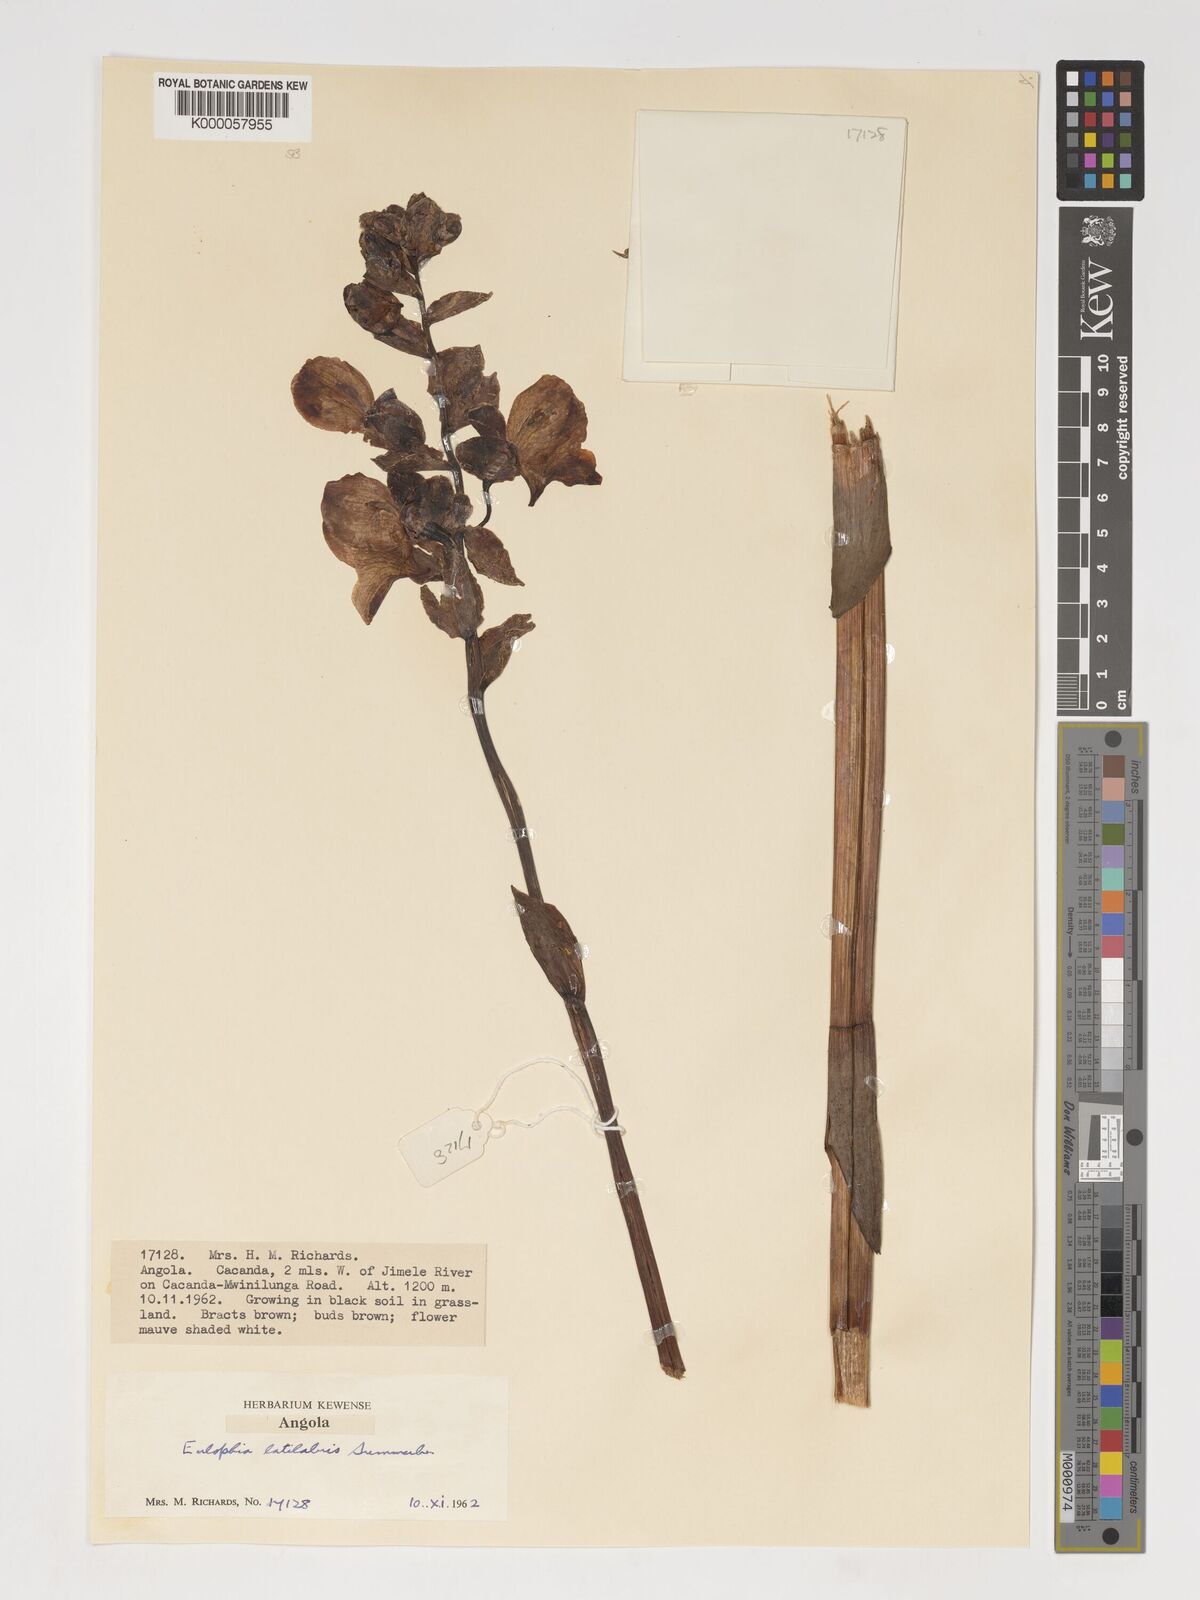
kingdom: Plantae
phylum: Tracheophyta
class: Liliopsida
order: Asparagales
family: Orchidaceae
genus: Eulophia
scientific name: Eulophia latilabris
